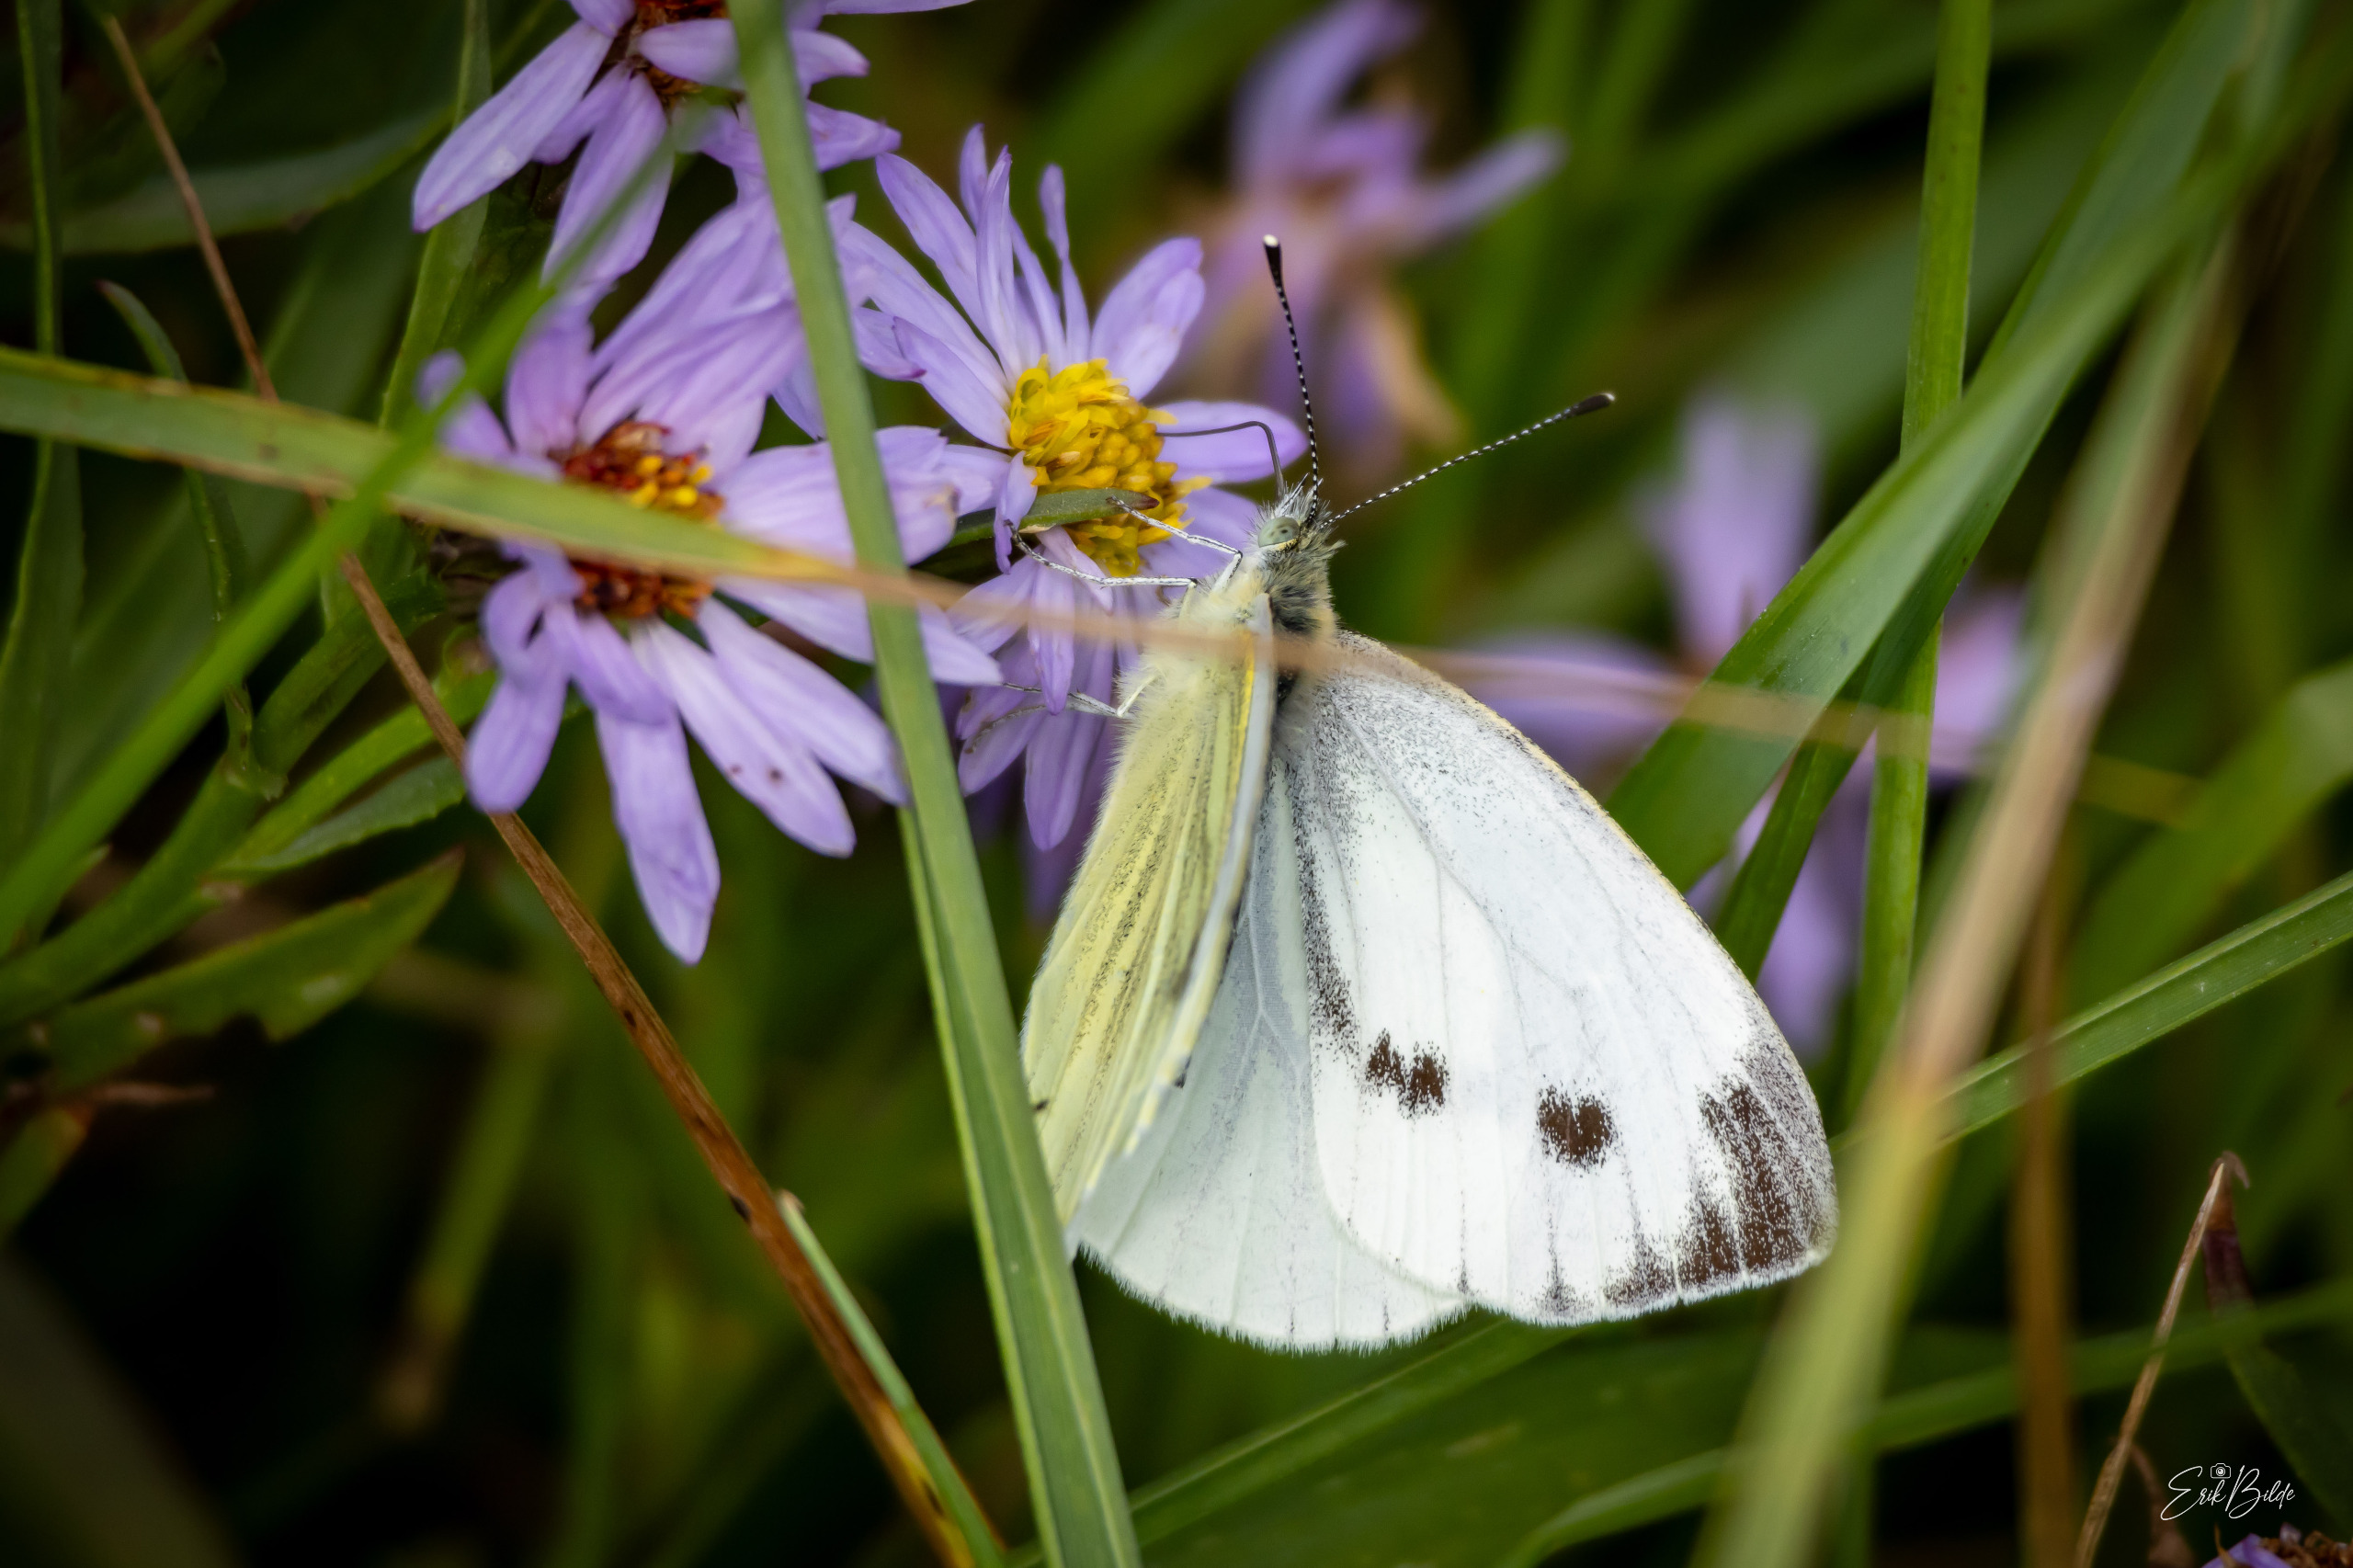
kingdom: Animalia
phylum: Arthropoda
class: Insecta
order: Lepidoptera
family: Pieridae
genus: Pieris
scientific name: Pieris napi
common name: Grønåret kålsommerfugl
